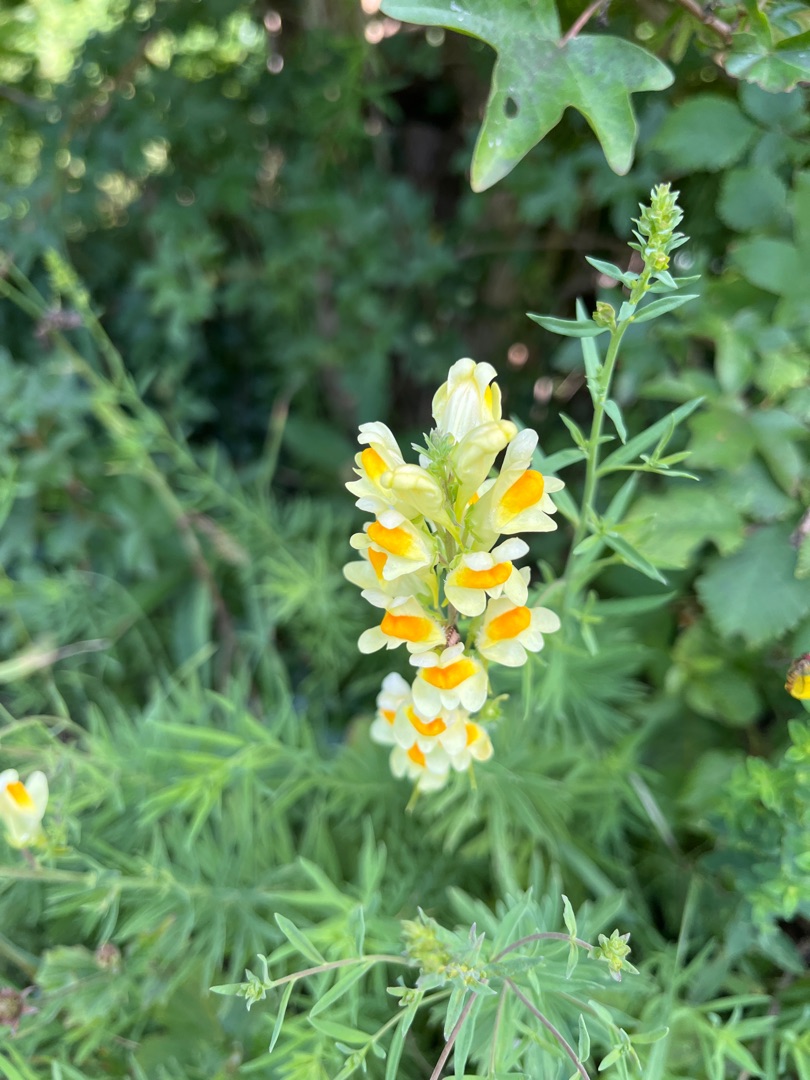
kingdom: Plantae
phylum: Tracheophyta
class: Magnoliopsida
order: Lamiales
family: Plantaginaceae
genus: Linaria
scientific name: Linaria vulgaris
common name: Almindelig torskemund
